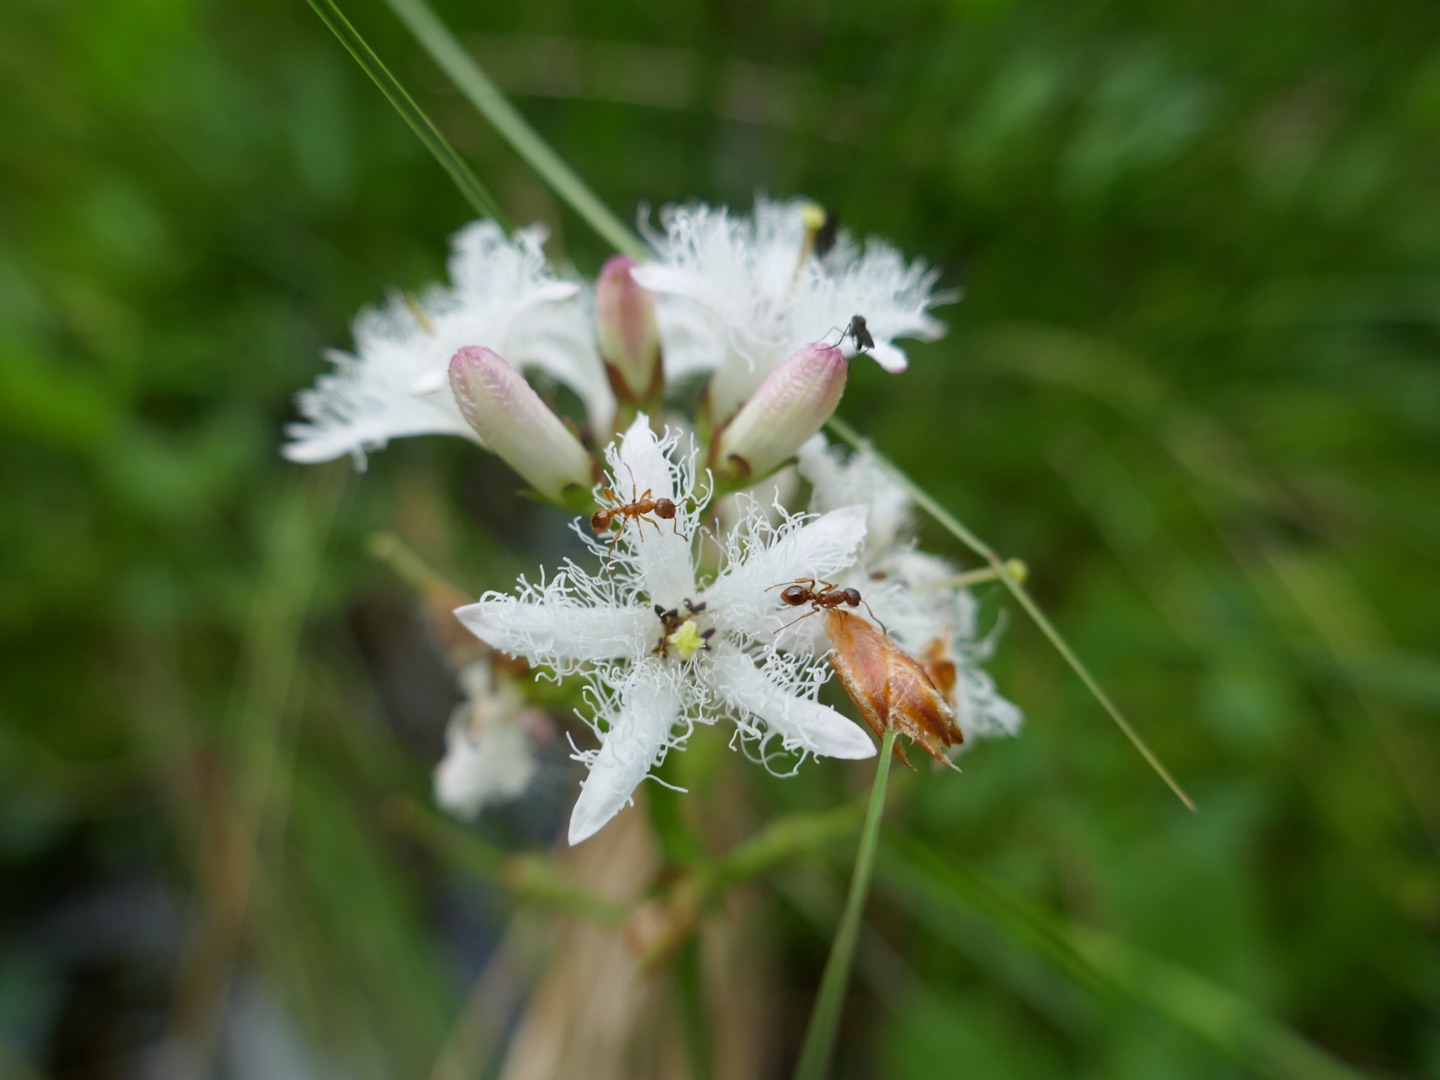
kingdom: Plantae
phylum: Tracheophyta
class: Magnoliopsida
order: Asterales
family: Menyanthaceae
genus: Menyanthes
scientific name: Menyanthes trifoliata
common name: Bukkeblad
